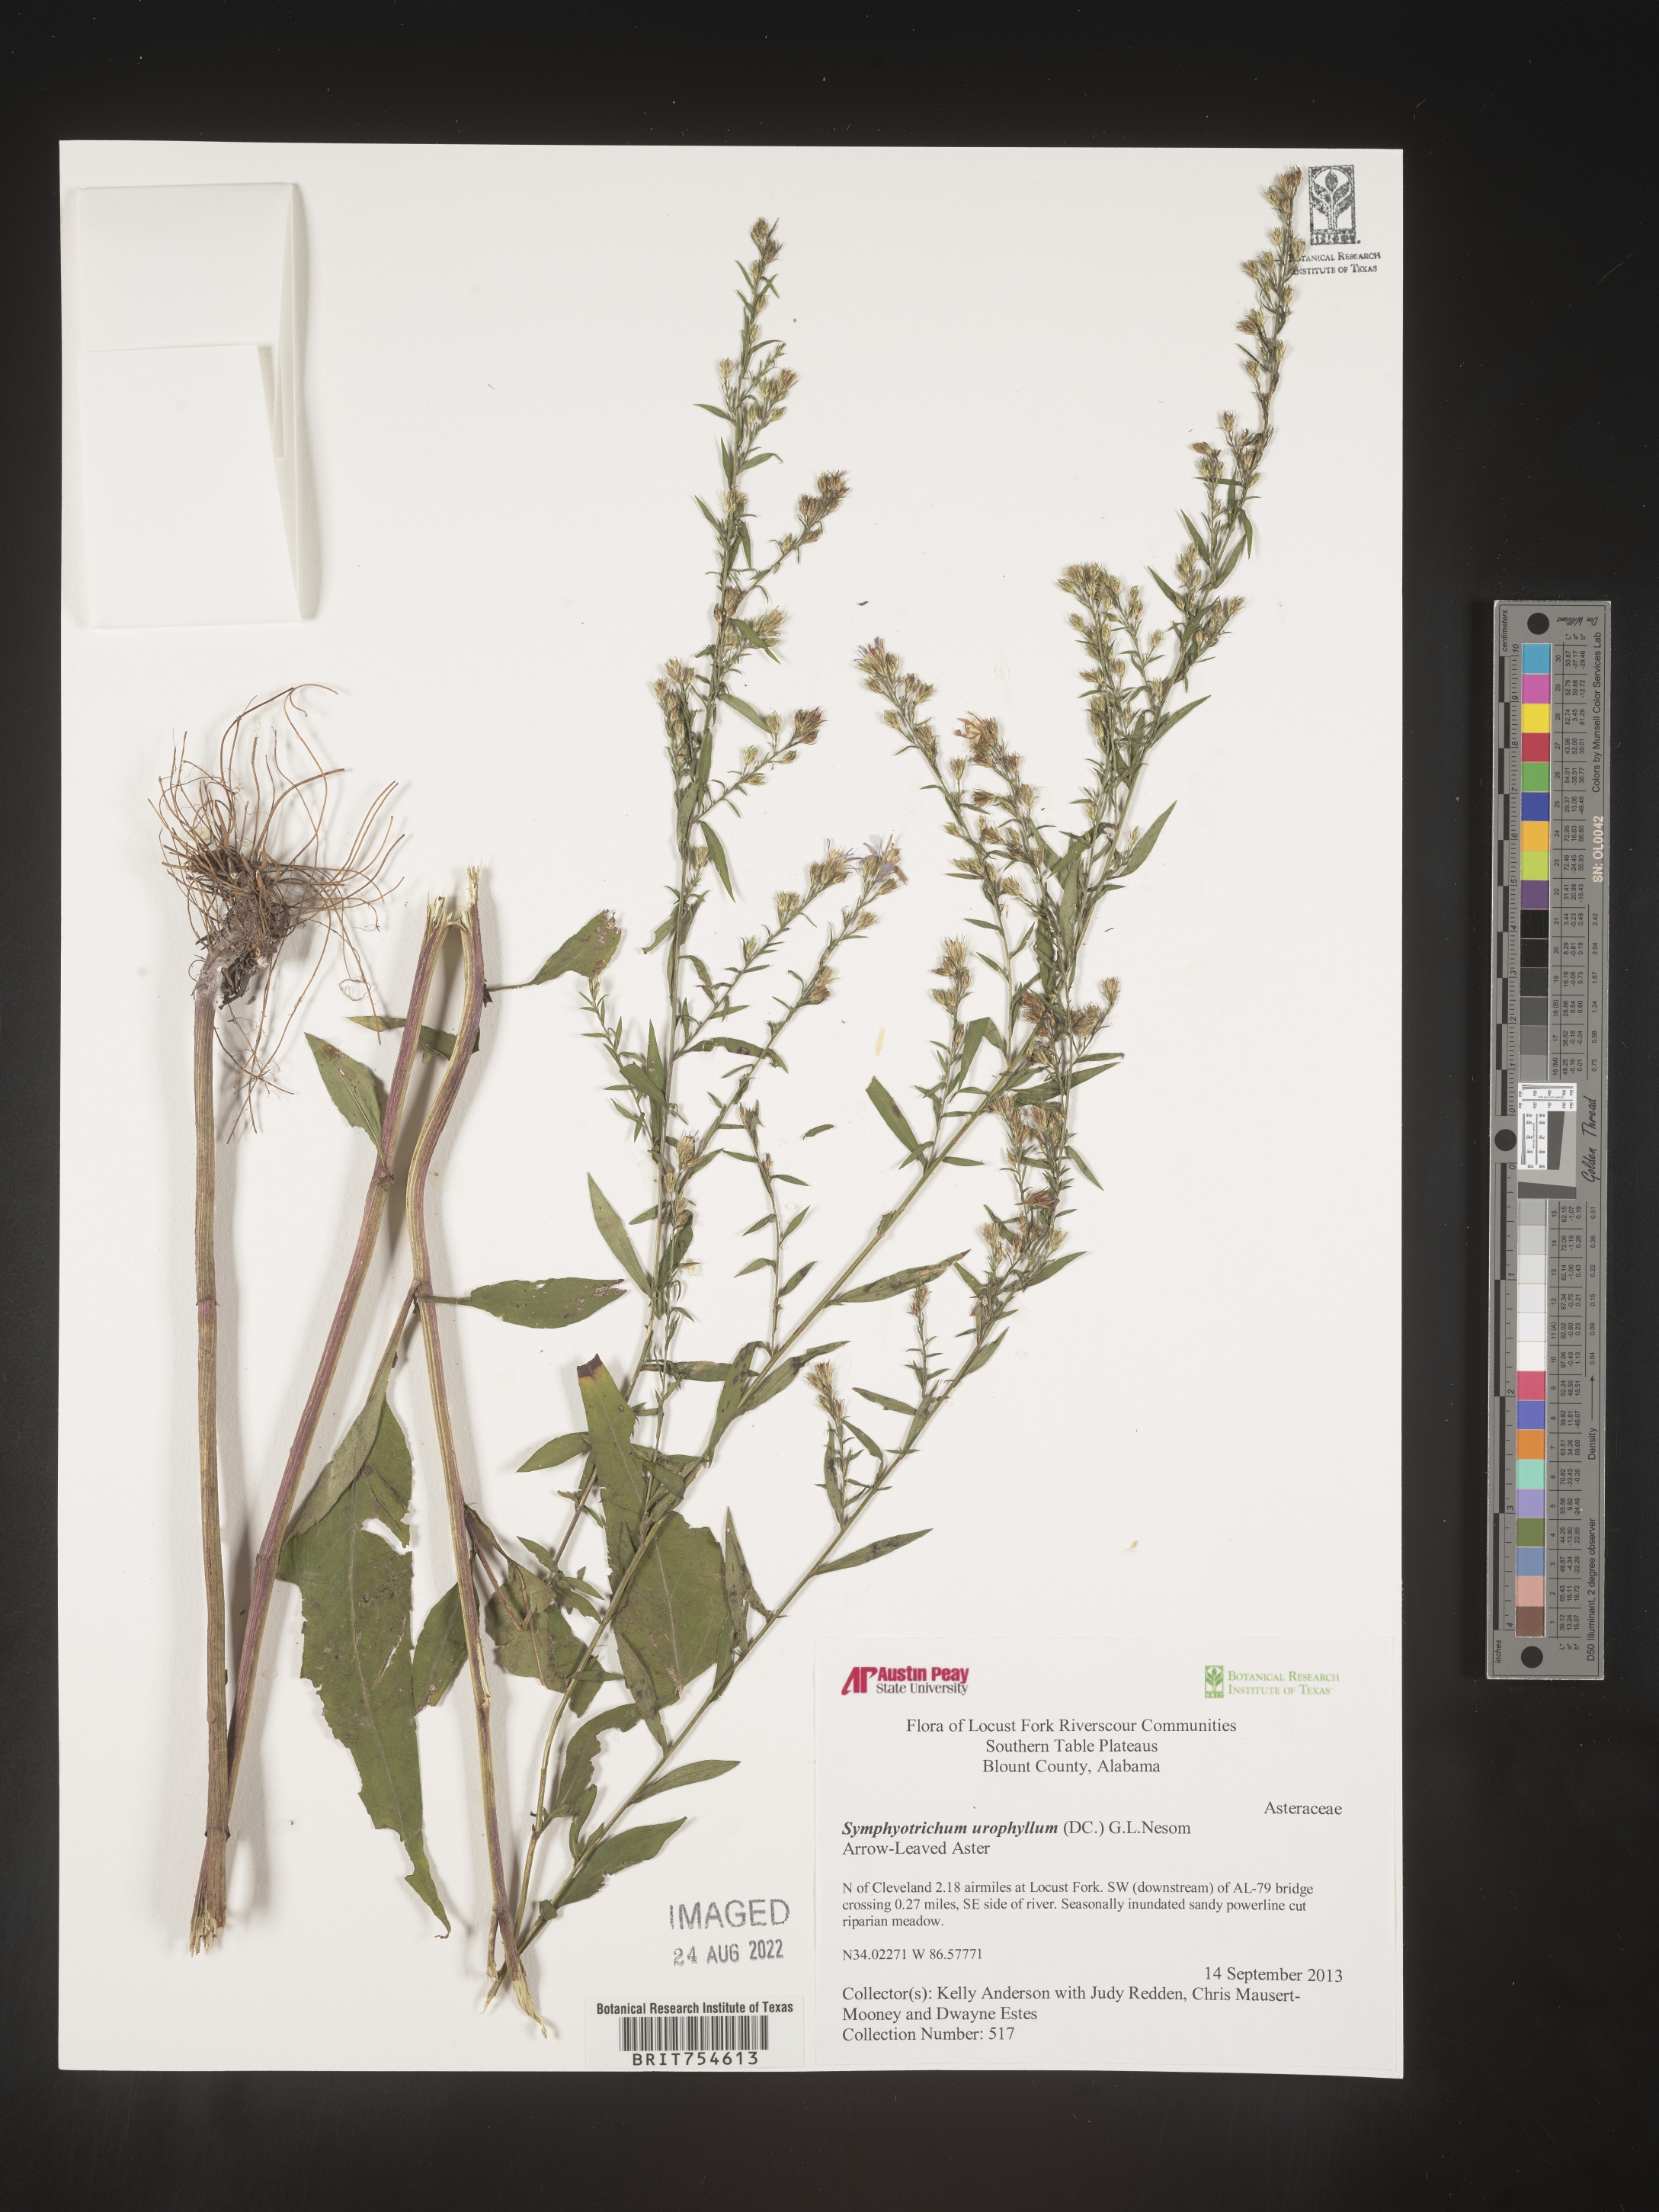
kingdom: Plantae
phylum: Tracheophyta
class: Magnoliopsida
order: Asterales
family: Asteraceae
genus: Symphyotrichum
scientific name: Symphyotrichum urophyllum
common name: Arrow-leaved aster
